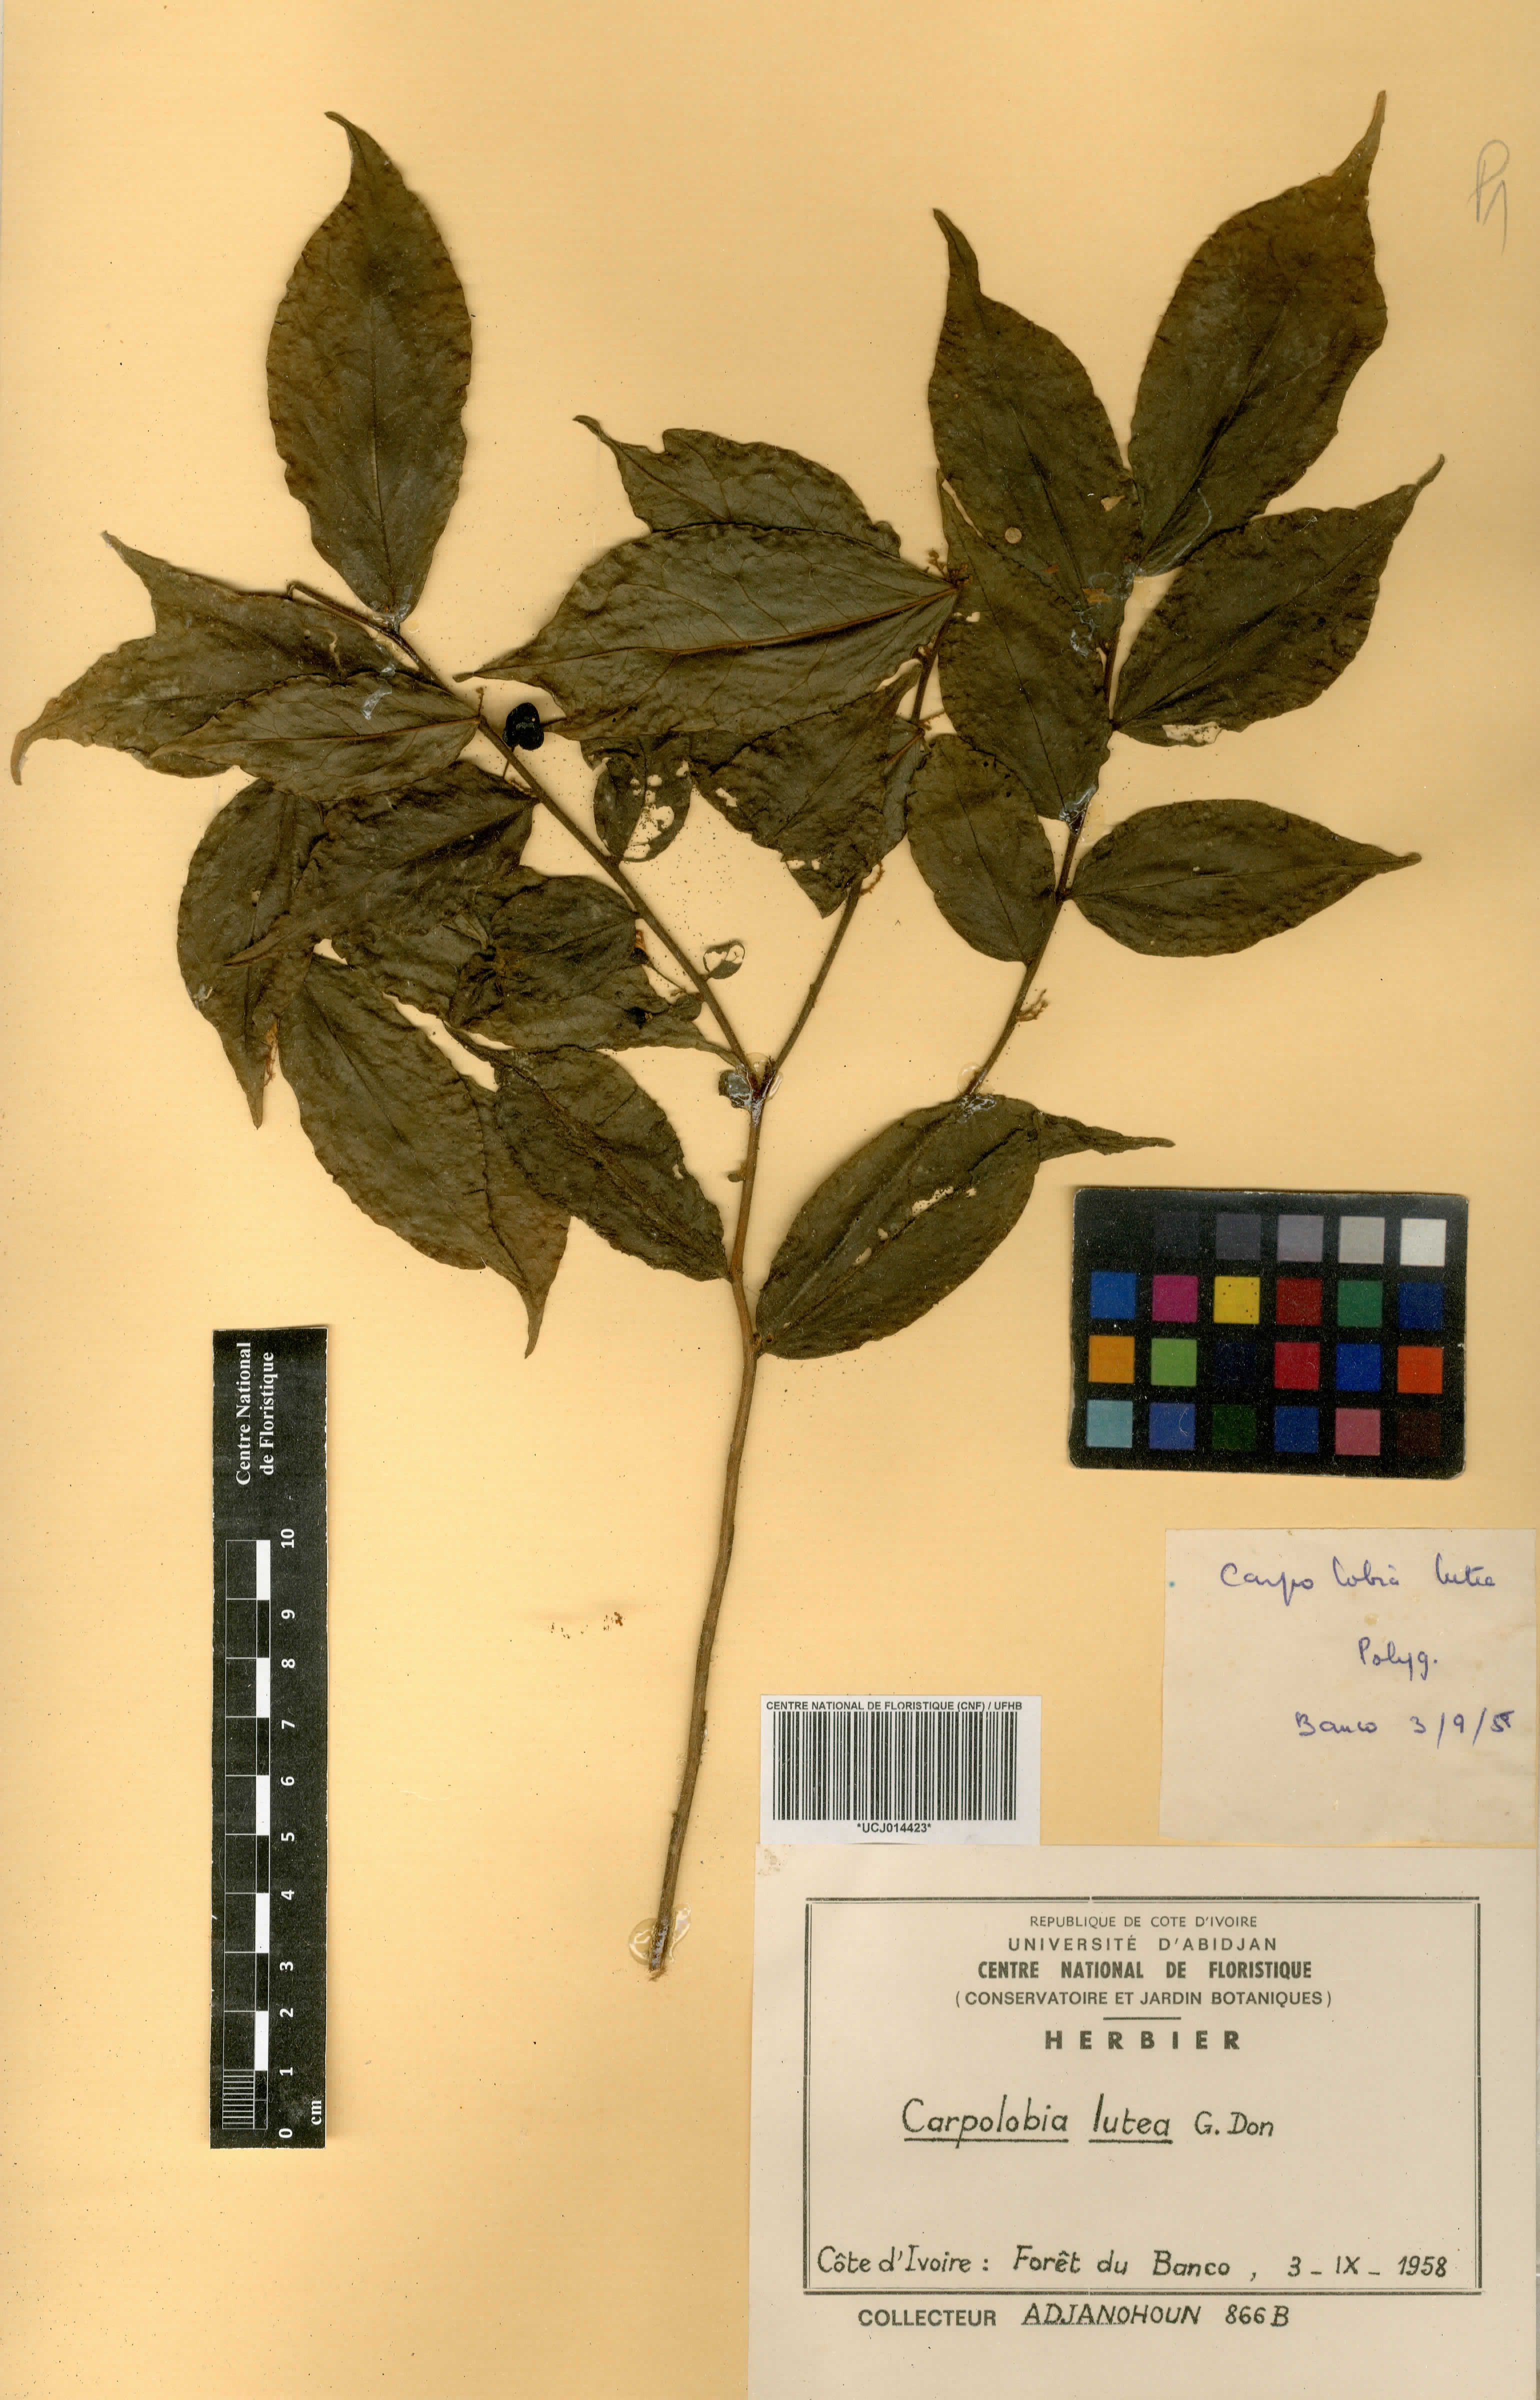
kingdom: Plantae
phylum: Tracheophyta
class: Magnoliopsida
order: Fabales
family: Polygalaceae
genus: Carpolobia
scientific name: Carpolobia lutea
